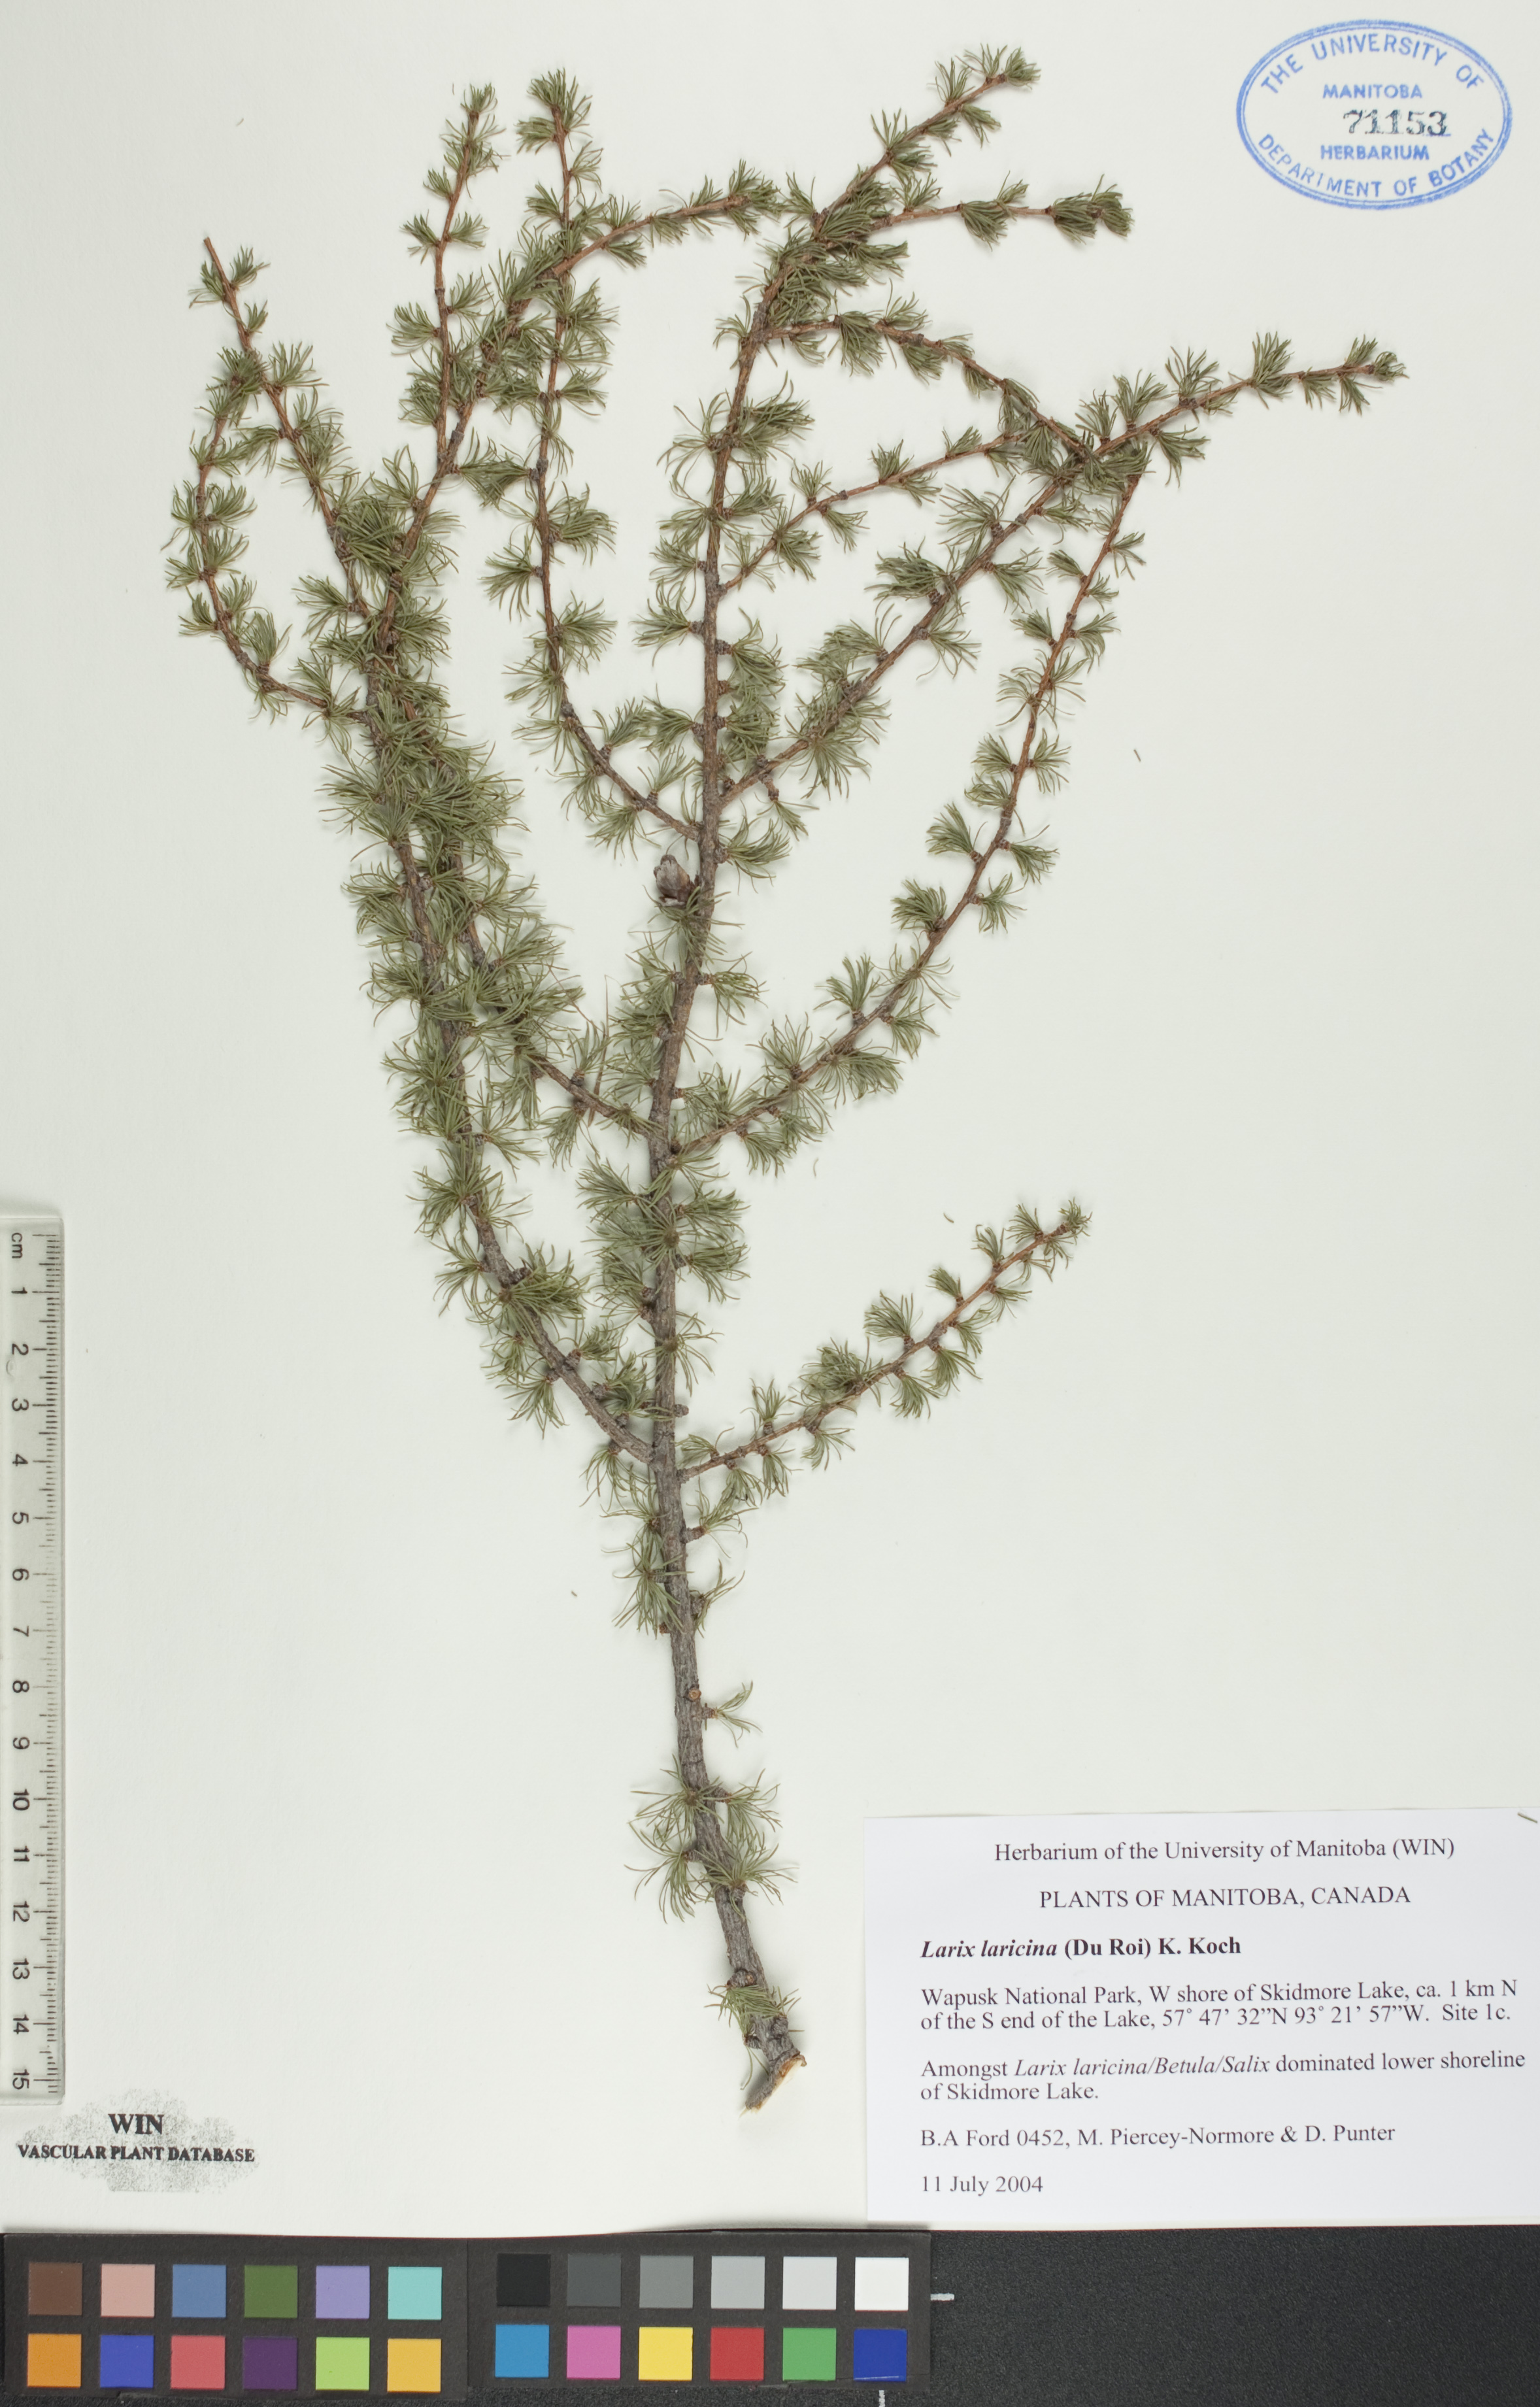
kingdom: Plantae
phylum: Tracheophyta
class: Pinopsida
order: Pinales
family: Pinaceae
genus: Larix
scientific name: Larix laricina
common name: American larch
